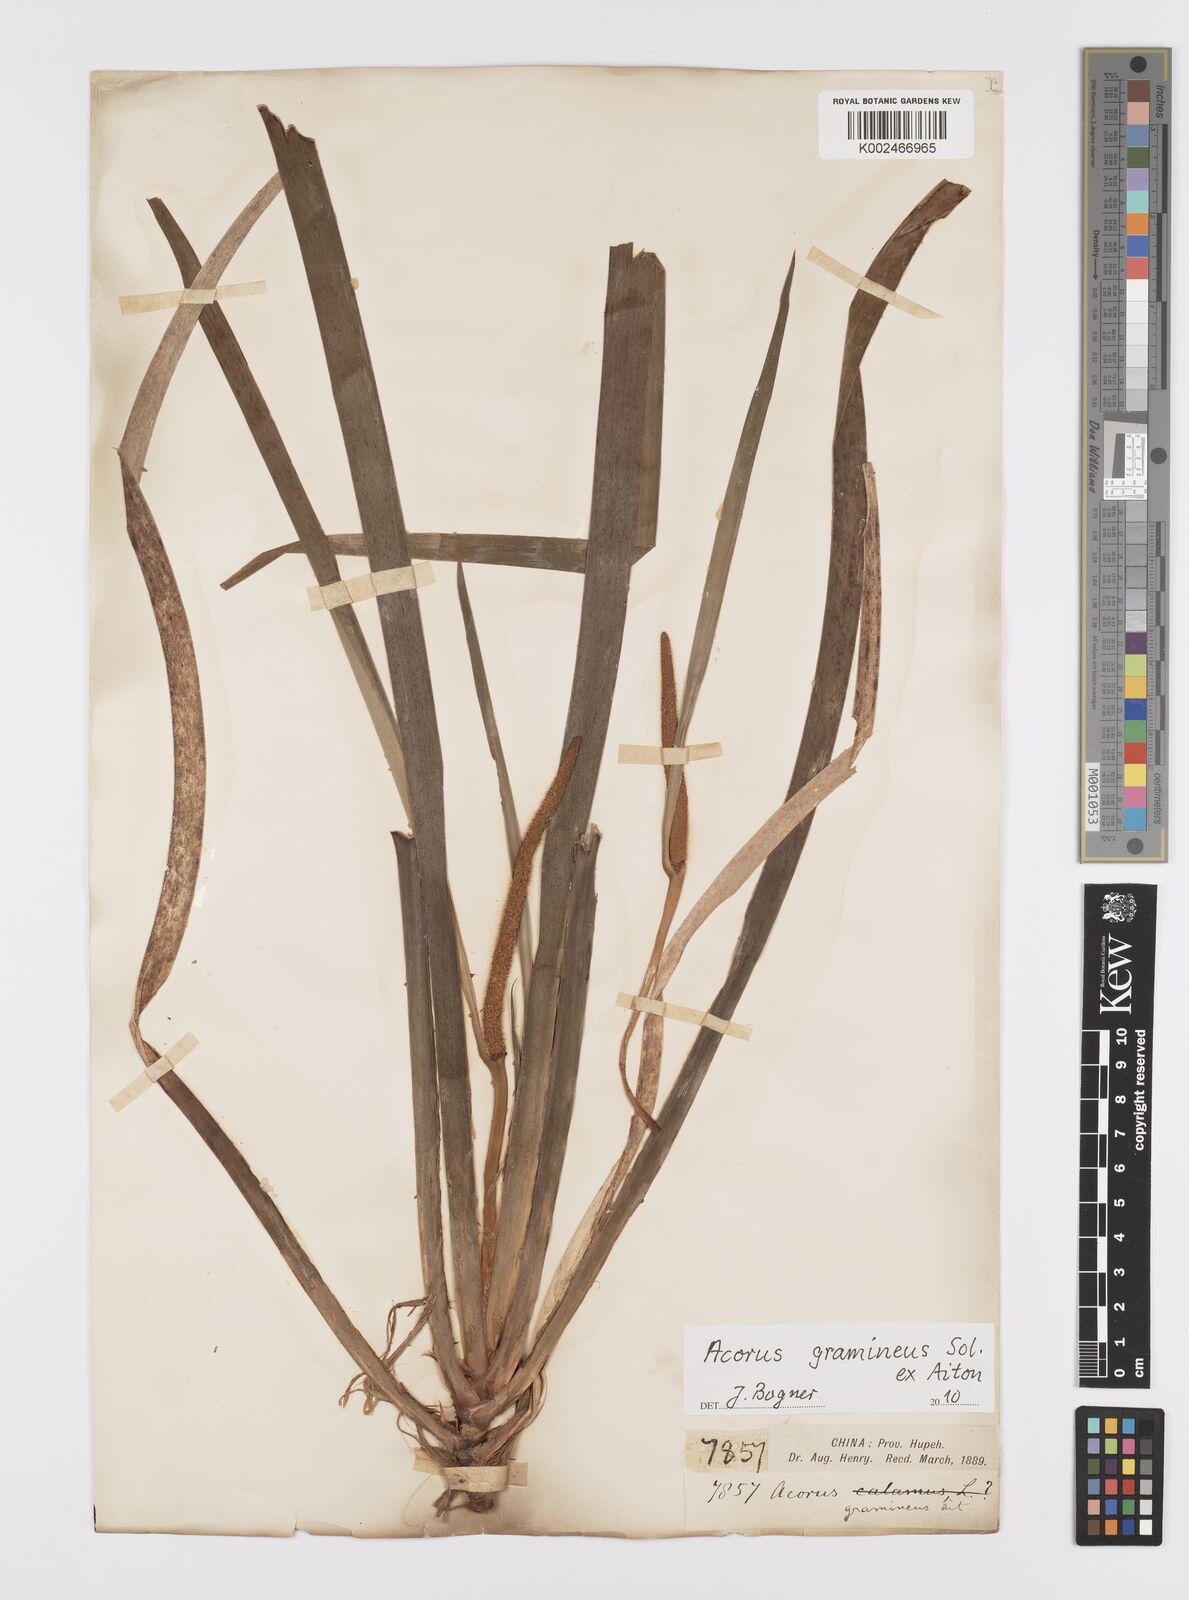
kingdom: Plantae
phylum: Tracheophyta
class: Liliopsida
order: Acorales
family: Acoraceae
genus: Acorus
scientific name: Acorus gramineus
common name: Slender sweet-flag
